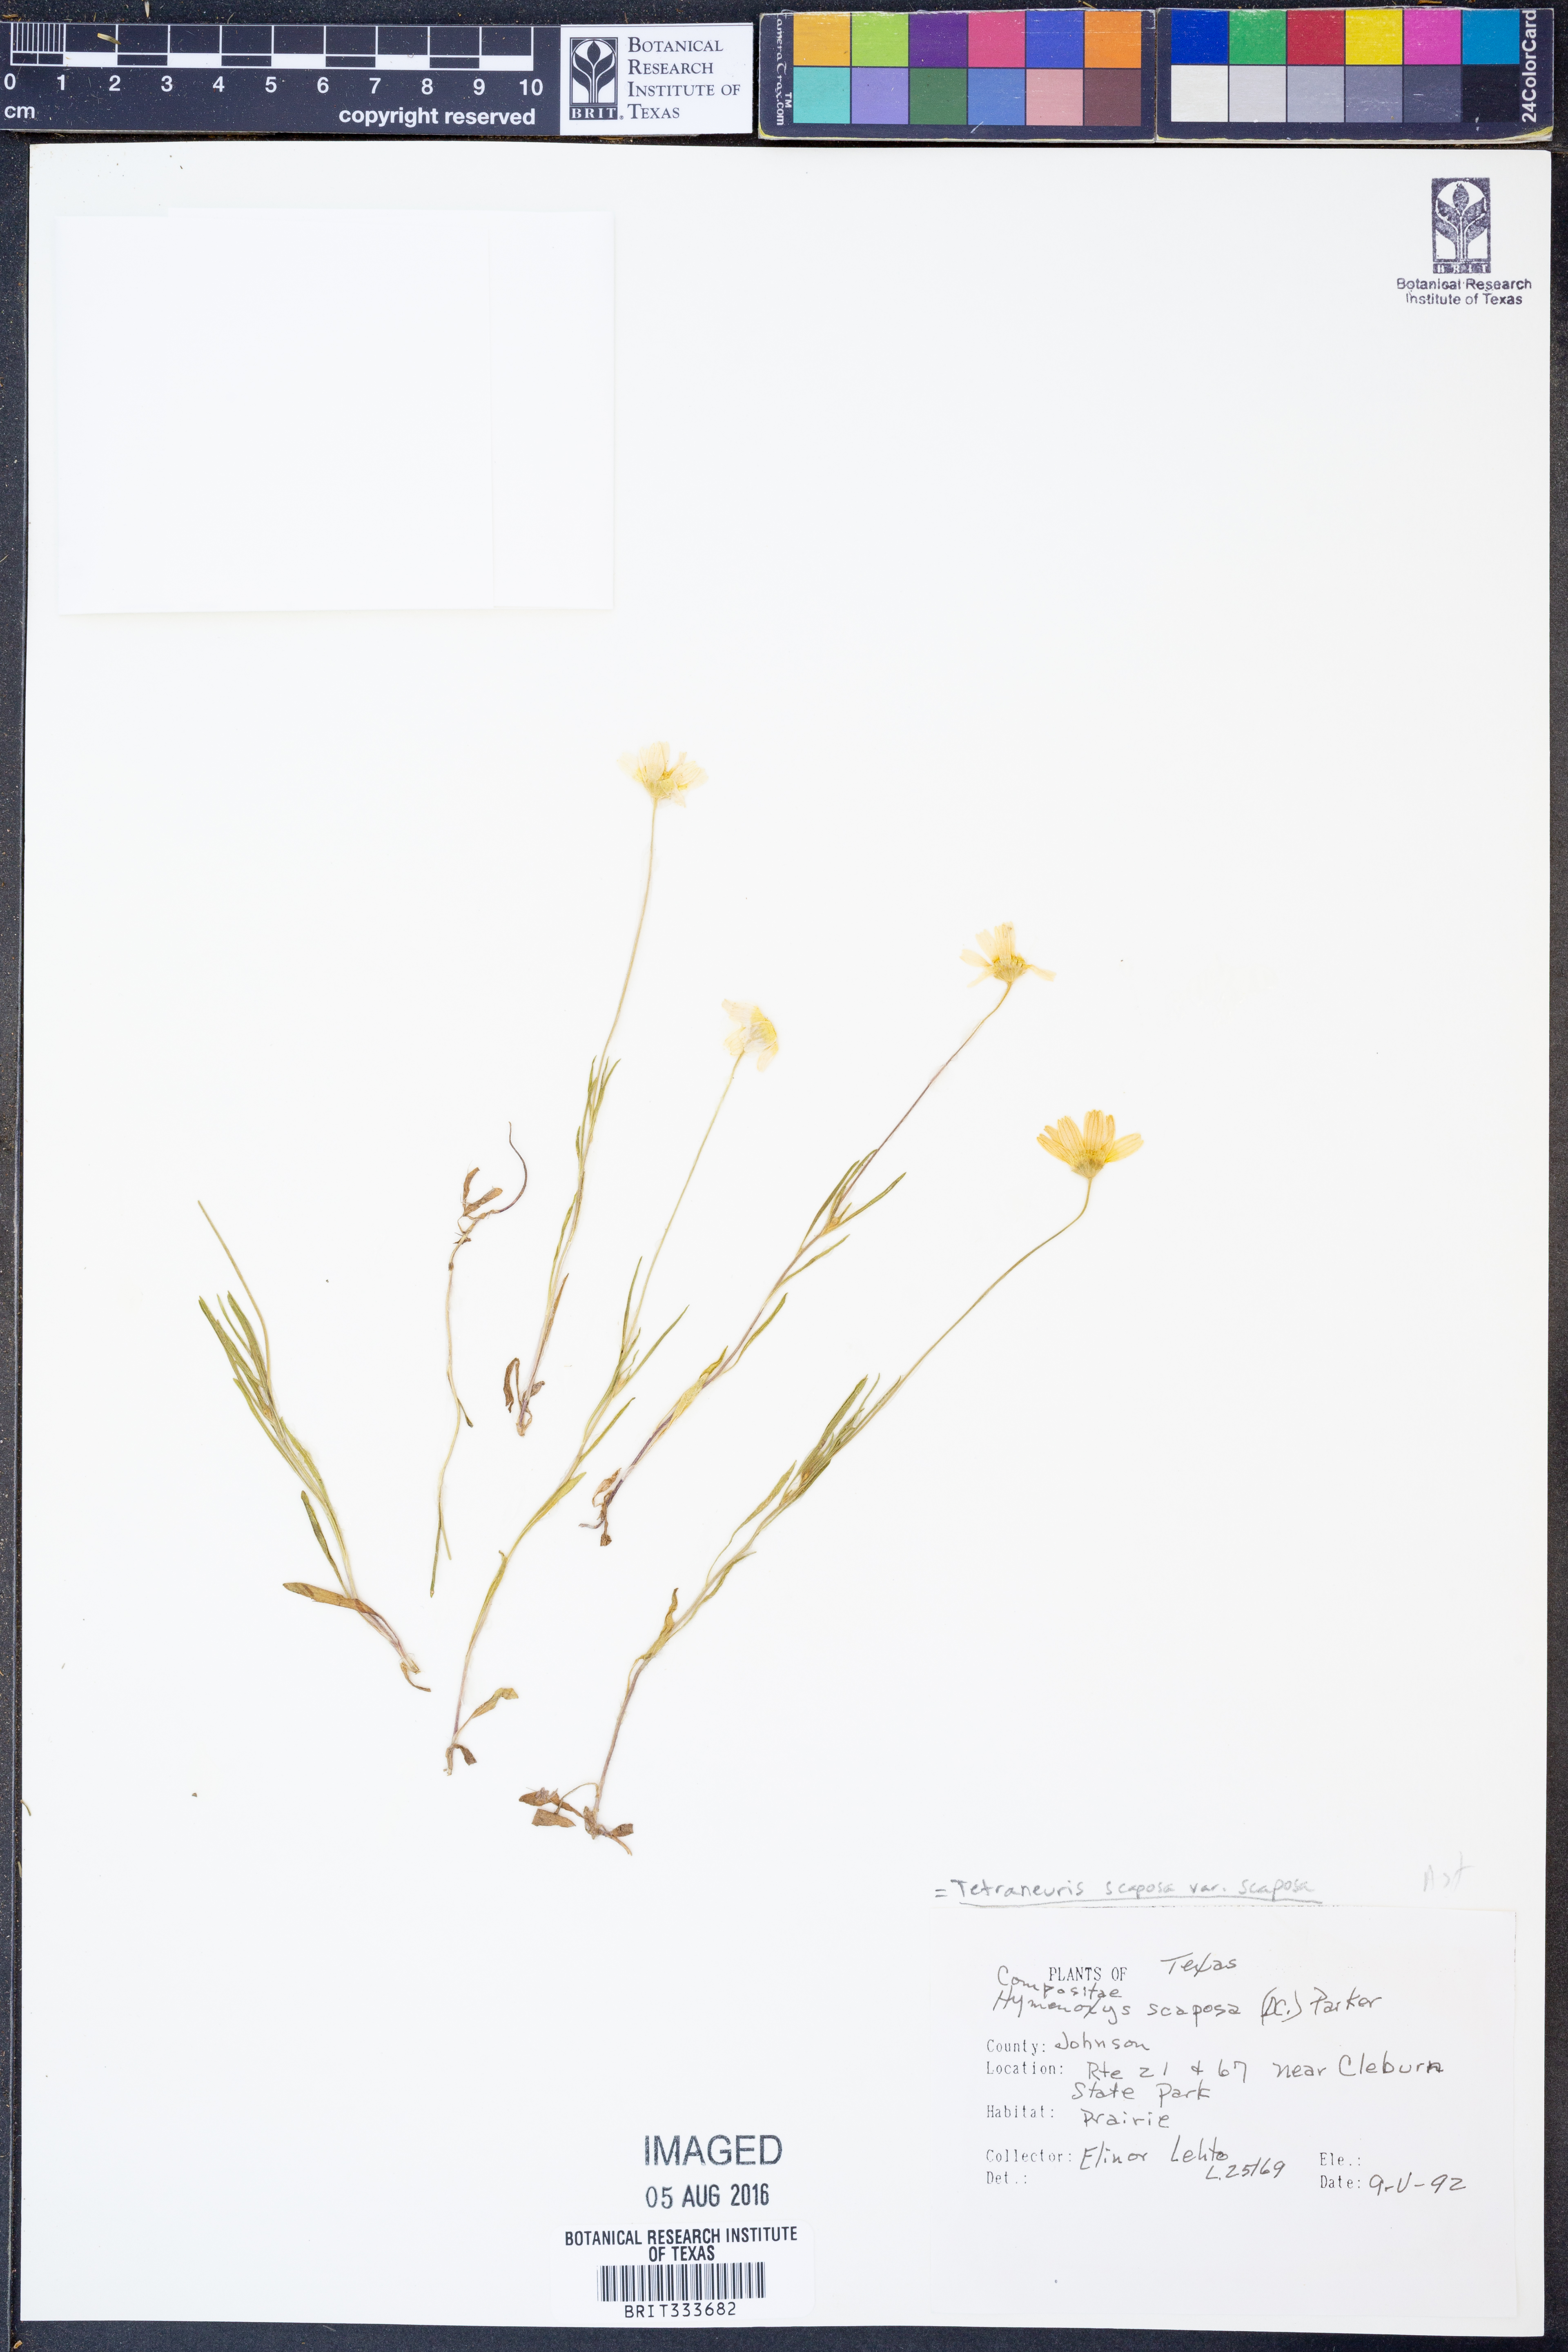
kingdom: Plantae
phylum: Tracheophyta
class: Magnoliopsida
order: Asterales
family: Asteraceae
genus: Tetraneuris
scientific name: Tetraneuris scaposa
